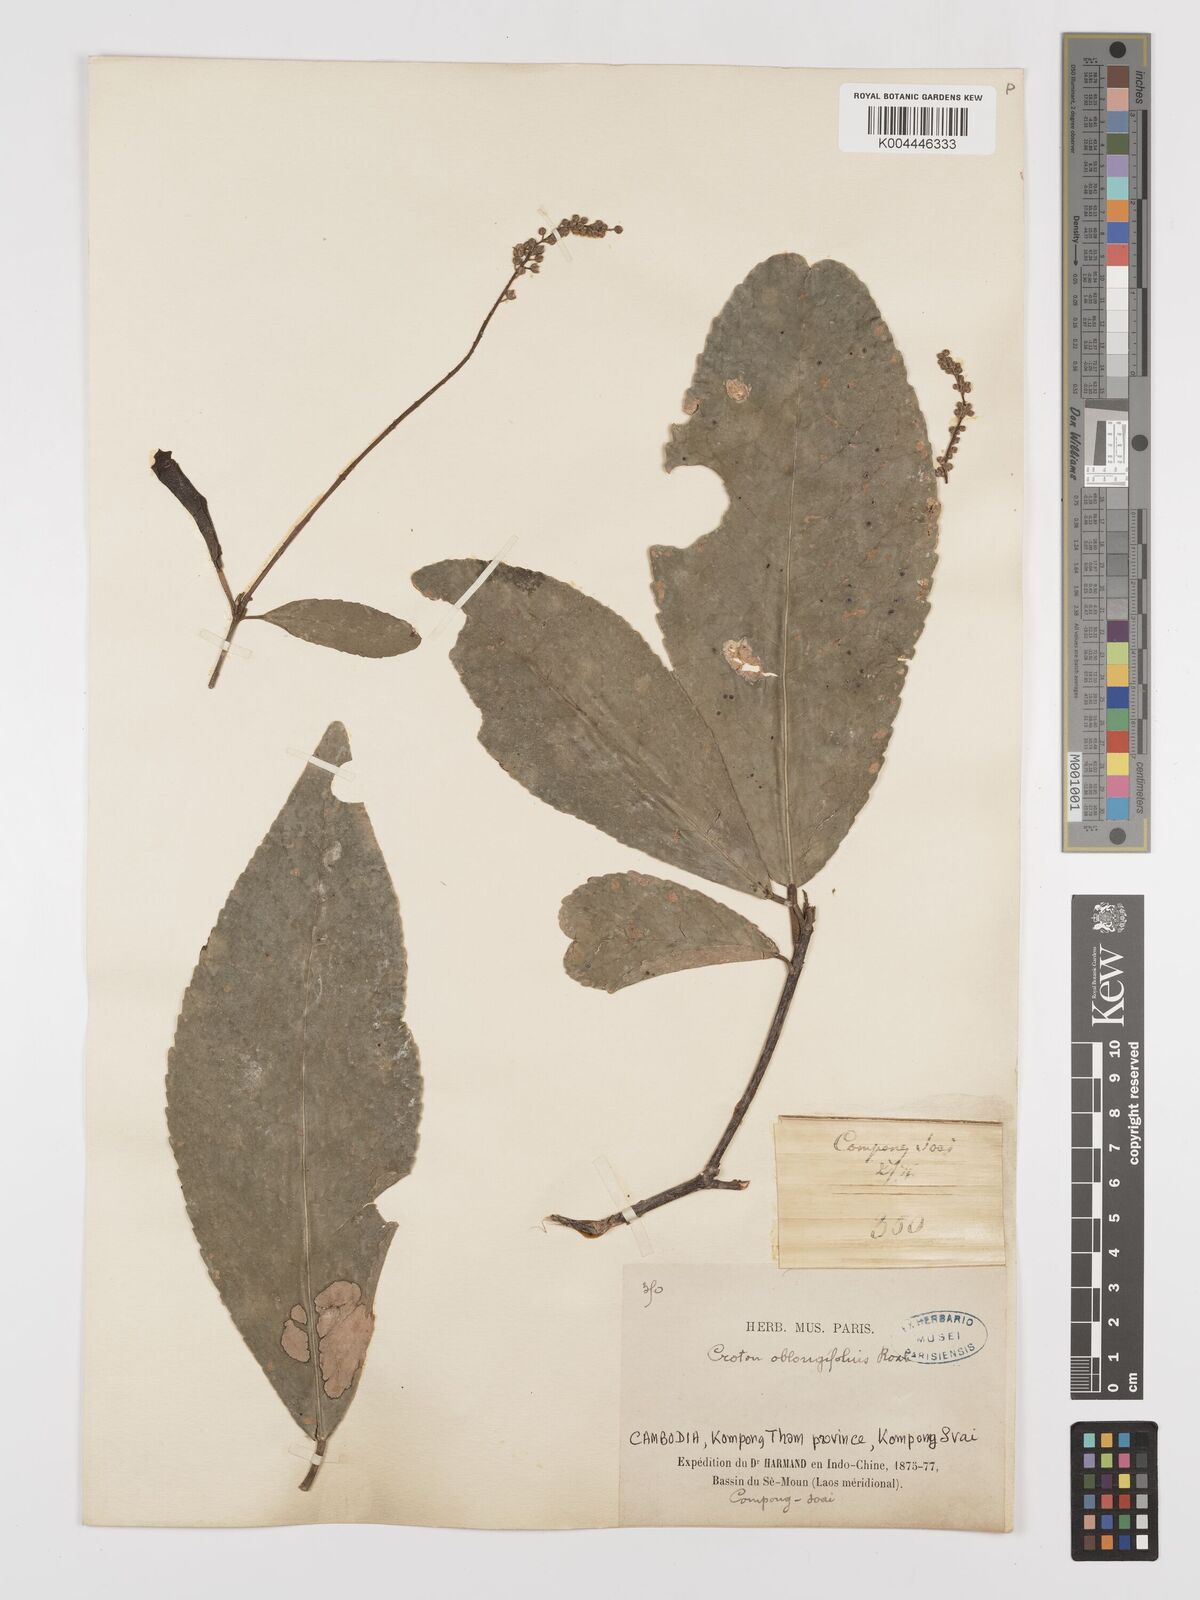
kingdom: Plantae
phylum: Tracheophyta
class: Magnoliopsida
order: Malpighiales
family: Euphorbiaceae
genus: Baliospermum
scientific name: Baliospermum solanifolium
